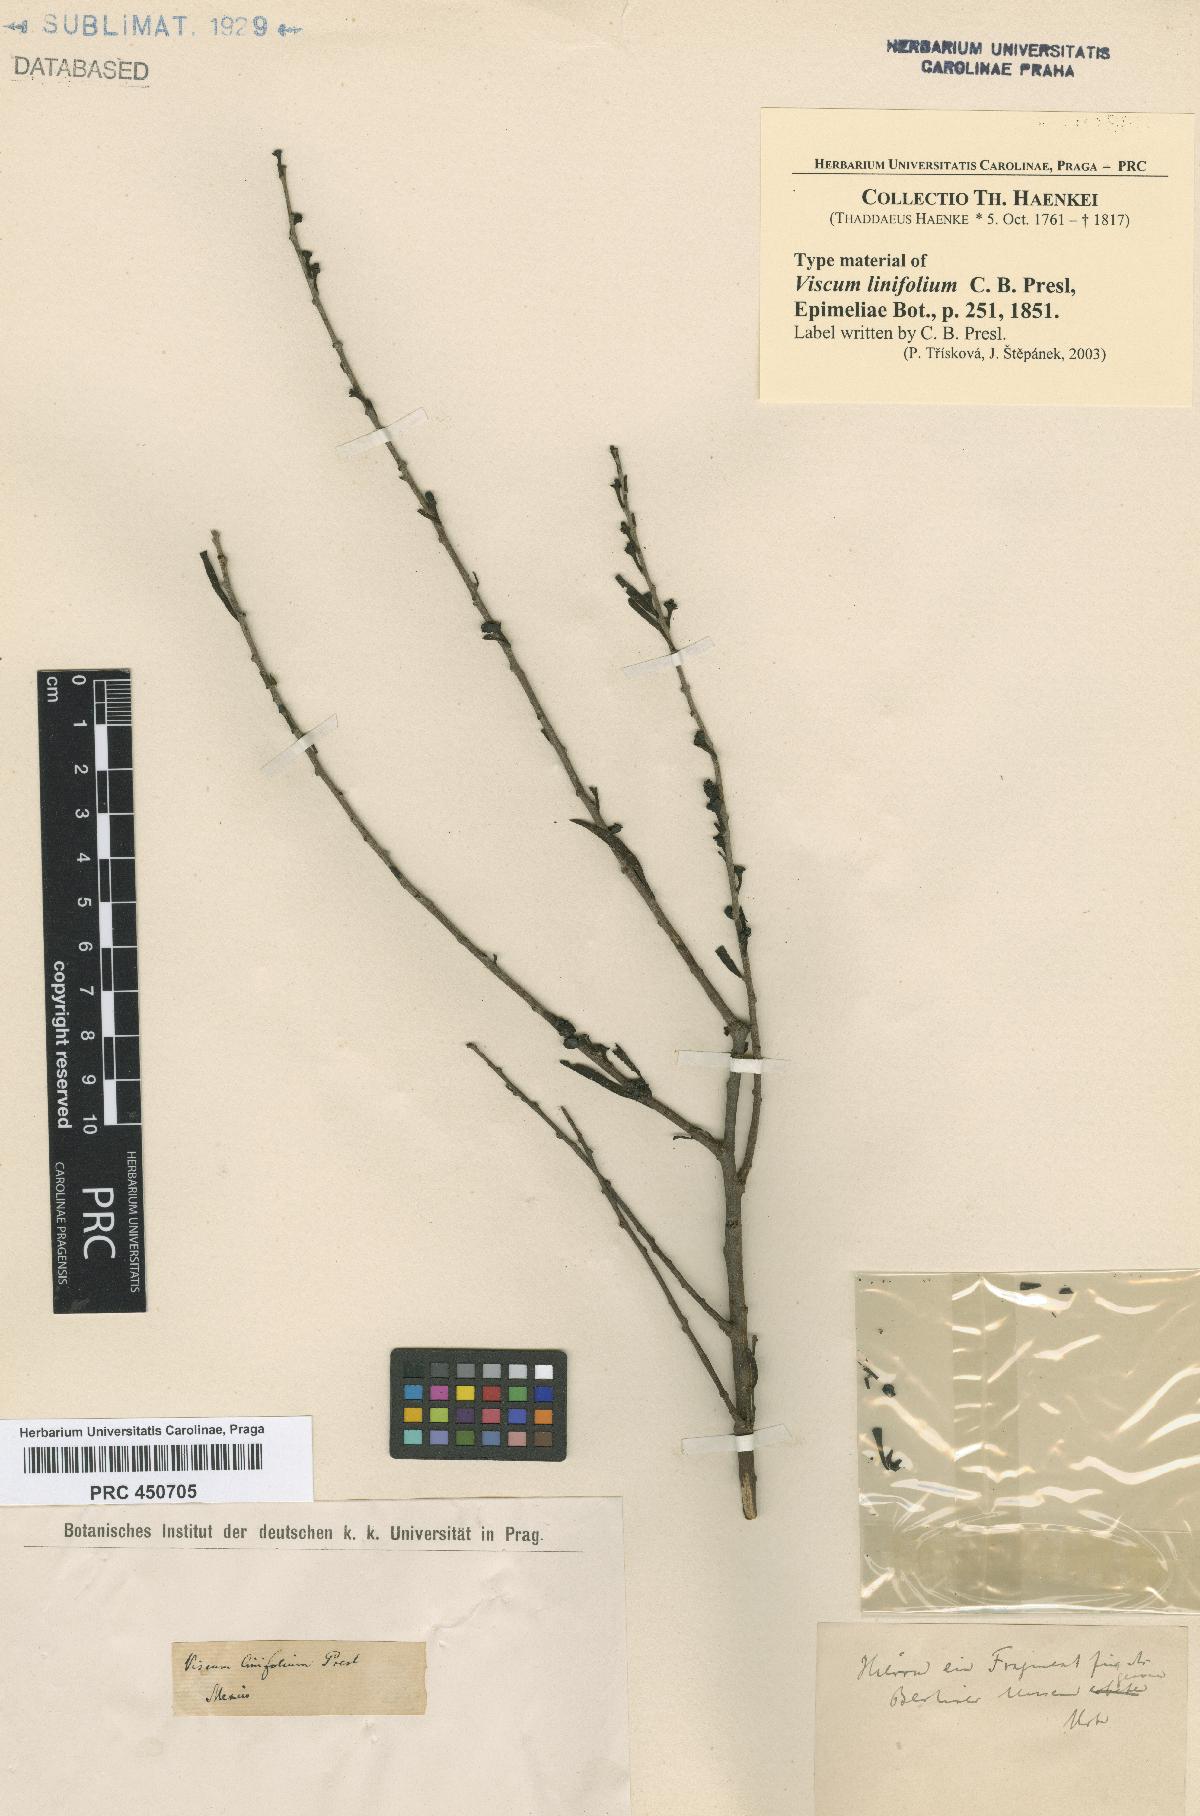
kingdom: Plantae
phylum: Tracheophyta
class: Magnoliopsida
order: Santalales
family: Viscaceae
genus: Phoradendron
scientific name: Phoradendron luisense
